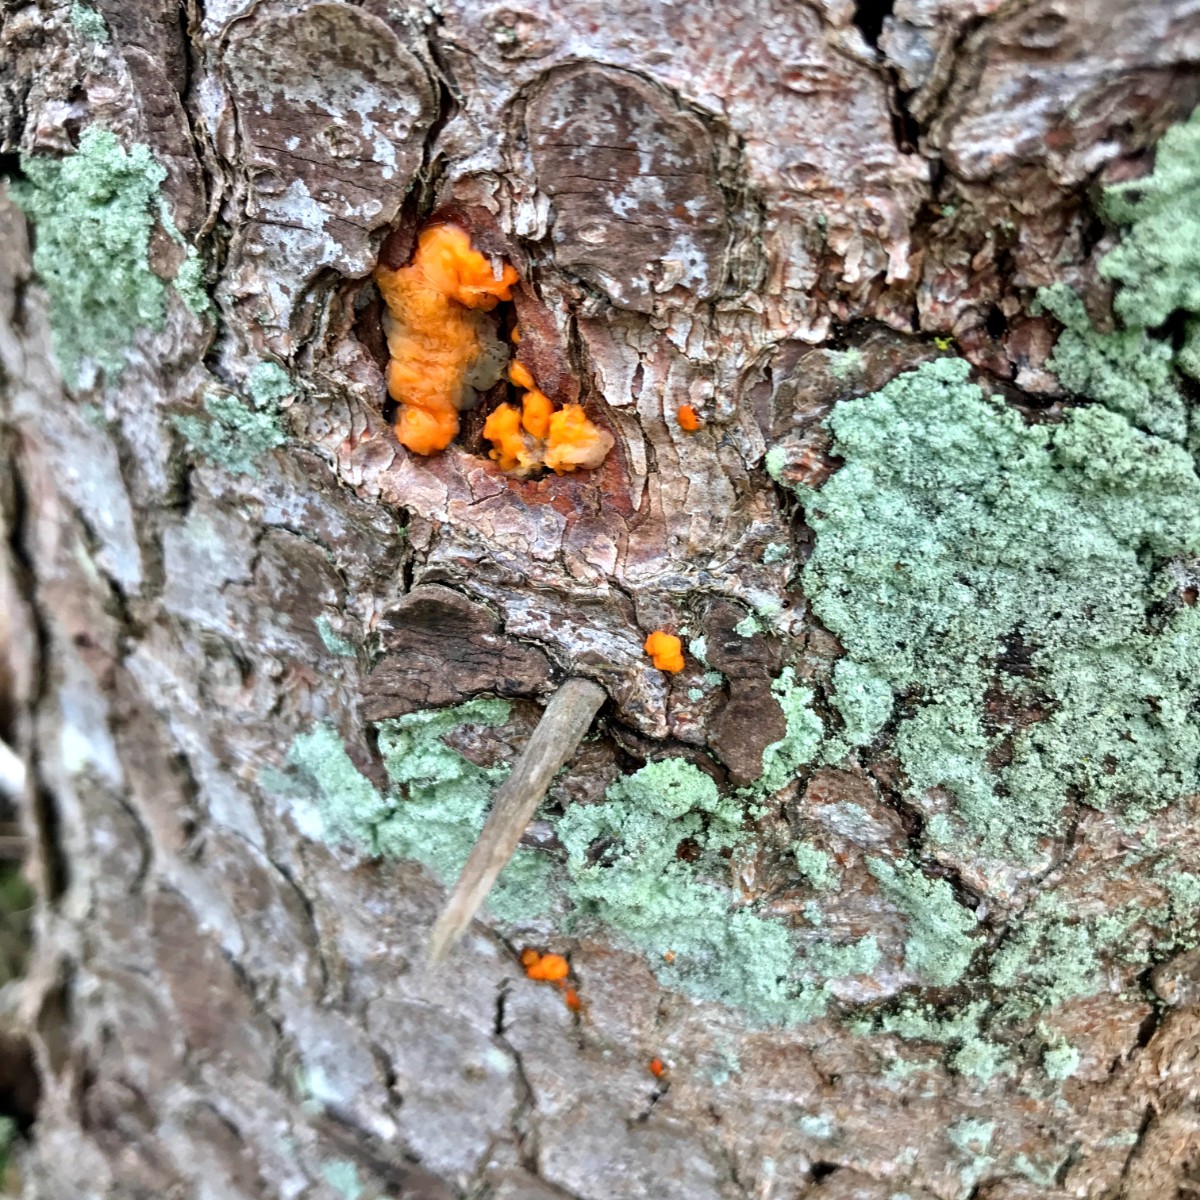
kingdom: Fungi
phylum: Basidiomycota
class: Dacrymycetes
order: Dacrymycetales
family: Dacrymycetaceae
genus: Dacrymyces
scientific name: Dacrymyces stillatus
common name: almindelig tåresvamp
